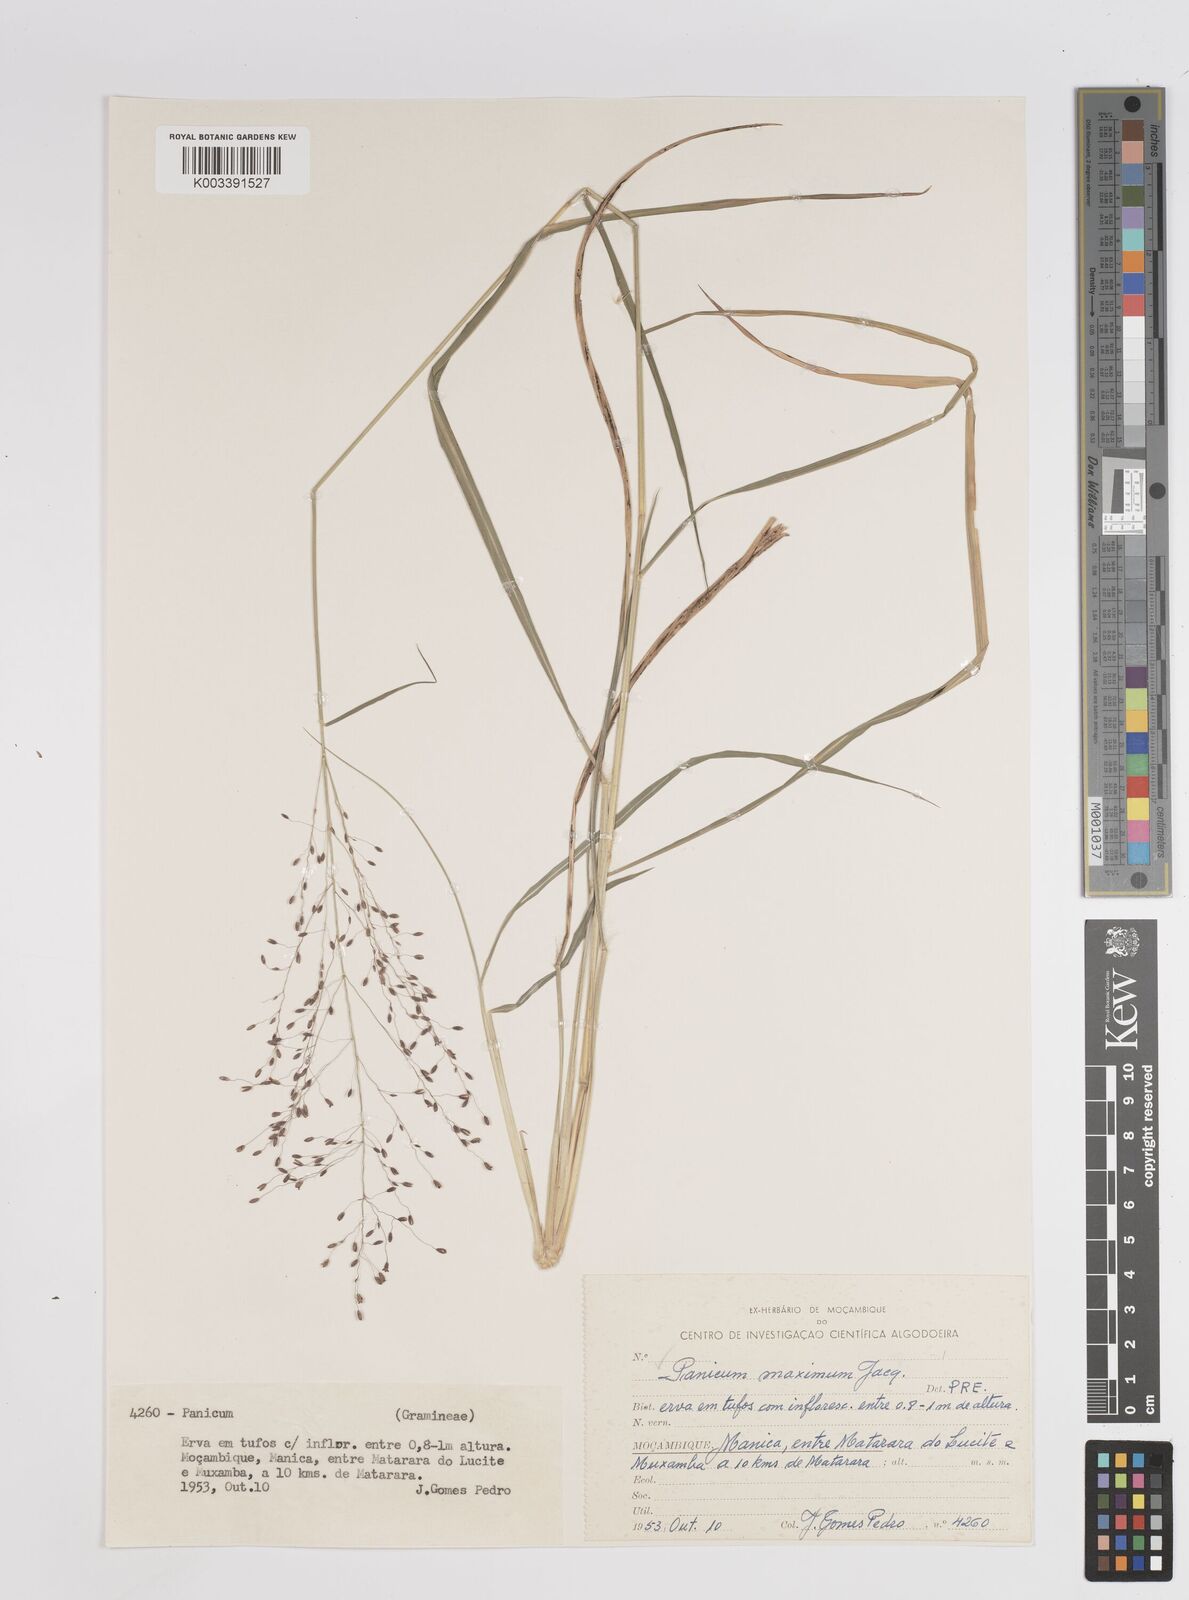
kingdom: Plantae
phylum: Tracheophyta
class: Liliopsida
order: Poales
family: Poaceae
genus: Megathyrsus
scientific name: Megathyrsus maximus
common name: Guineagrass
